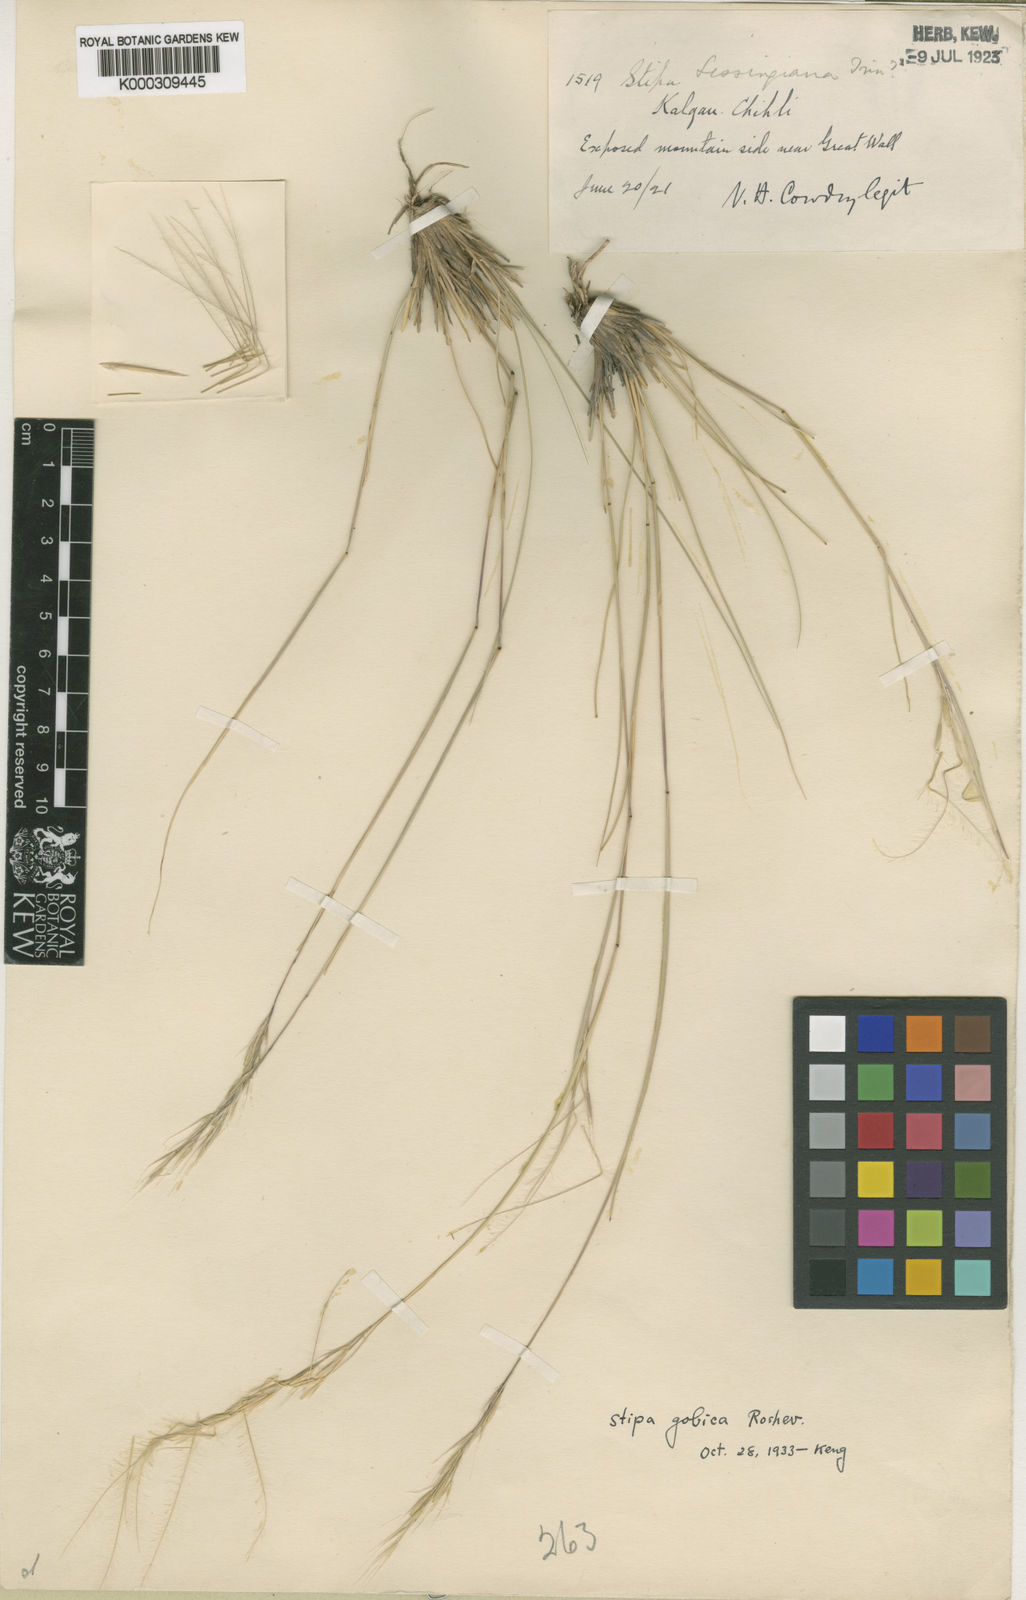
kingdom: Plantae
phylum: Tracheophyta
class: Liliopsida
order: Poales
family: Poaceae
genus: Stipa
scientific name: Stipa tianschanica
